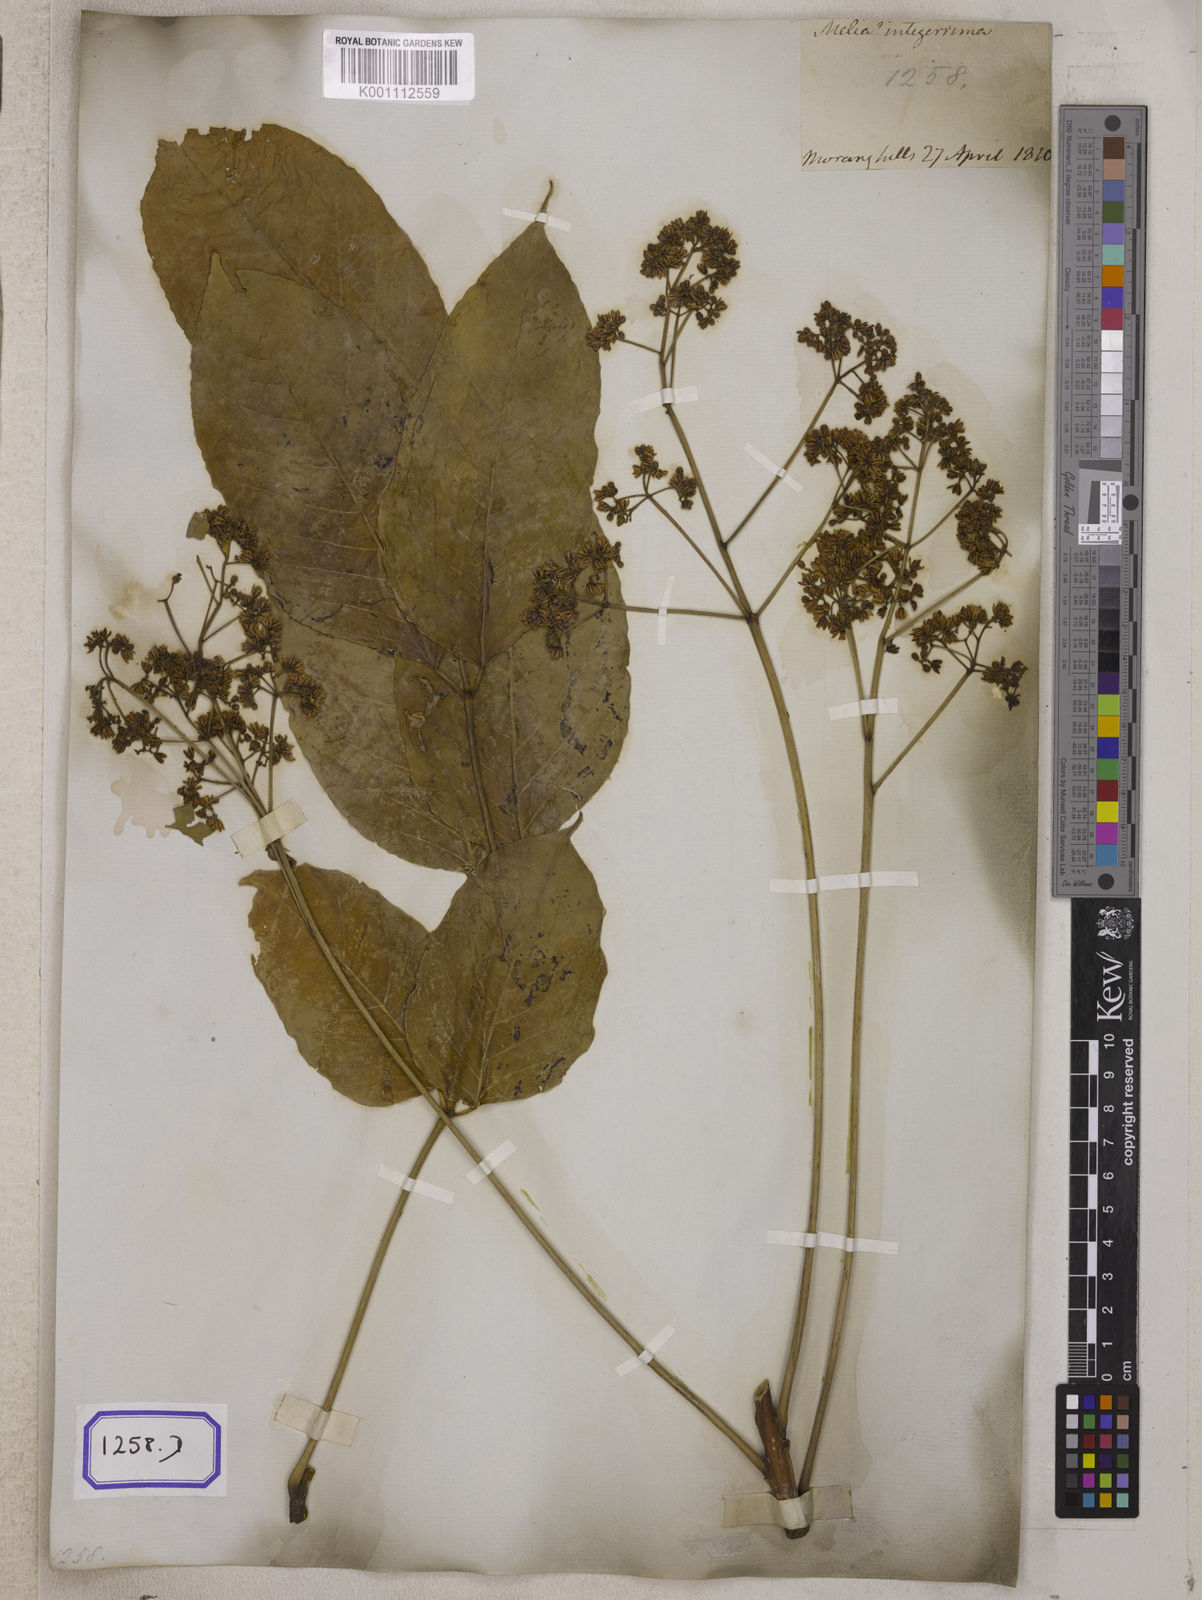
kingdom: Plantae
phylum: Tracheophyta
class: Magnoliopsida
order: Sapindales
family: Meliaceae
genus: Heynea
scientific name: Heynea trijuga
